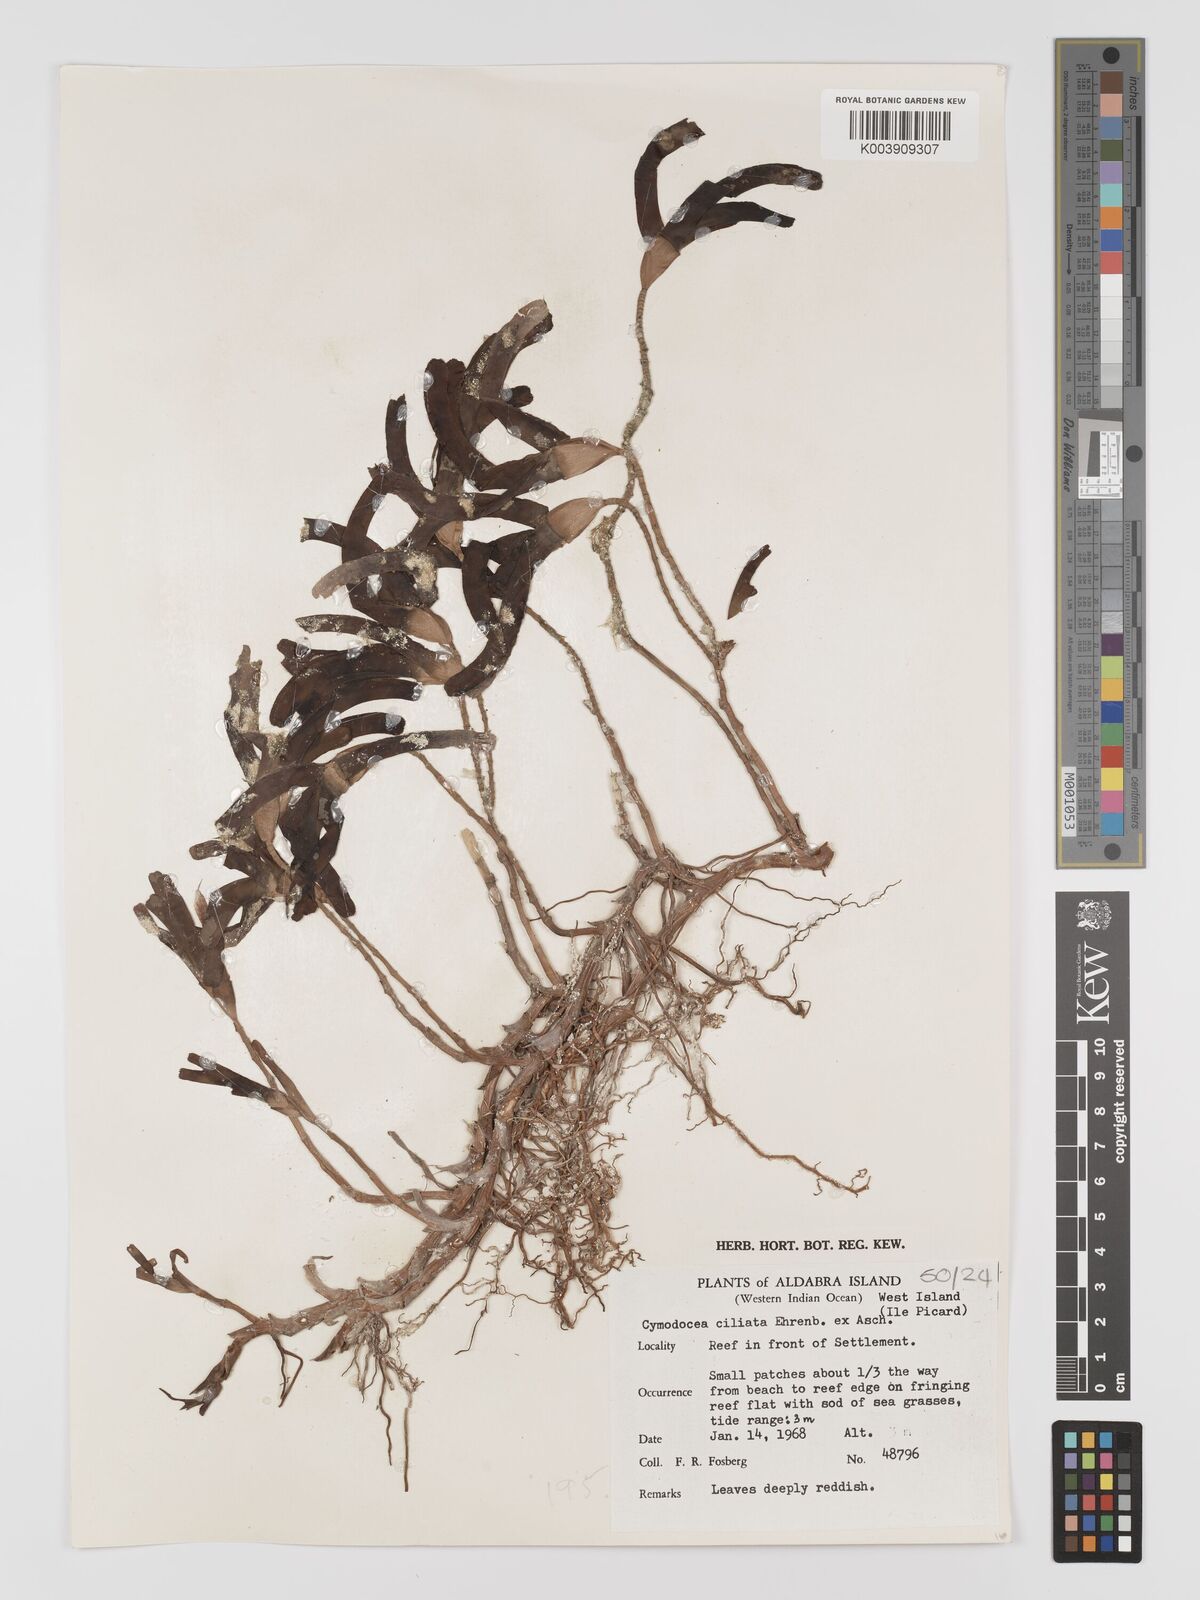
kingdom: Plantae
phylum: Tracheophyta
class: Liliopsida
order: Alismatales
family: Cymodoceaceae
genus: Thalassodendron
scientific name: Thalassodendron ciliatum
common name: Species code: tc
